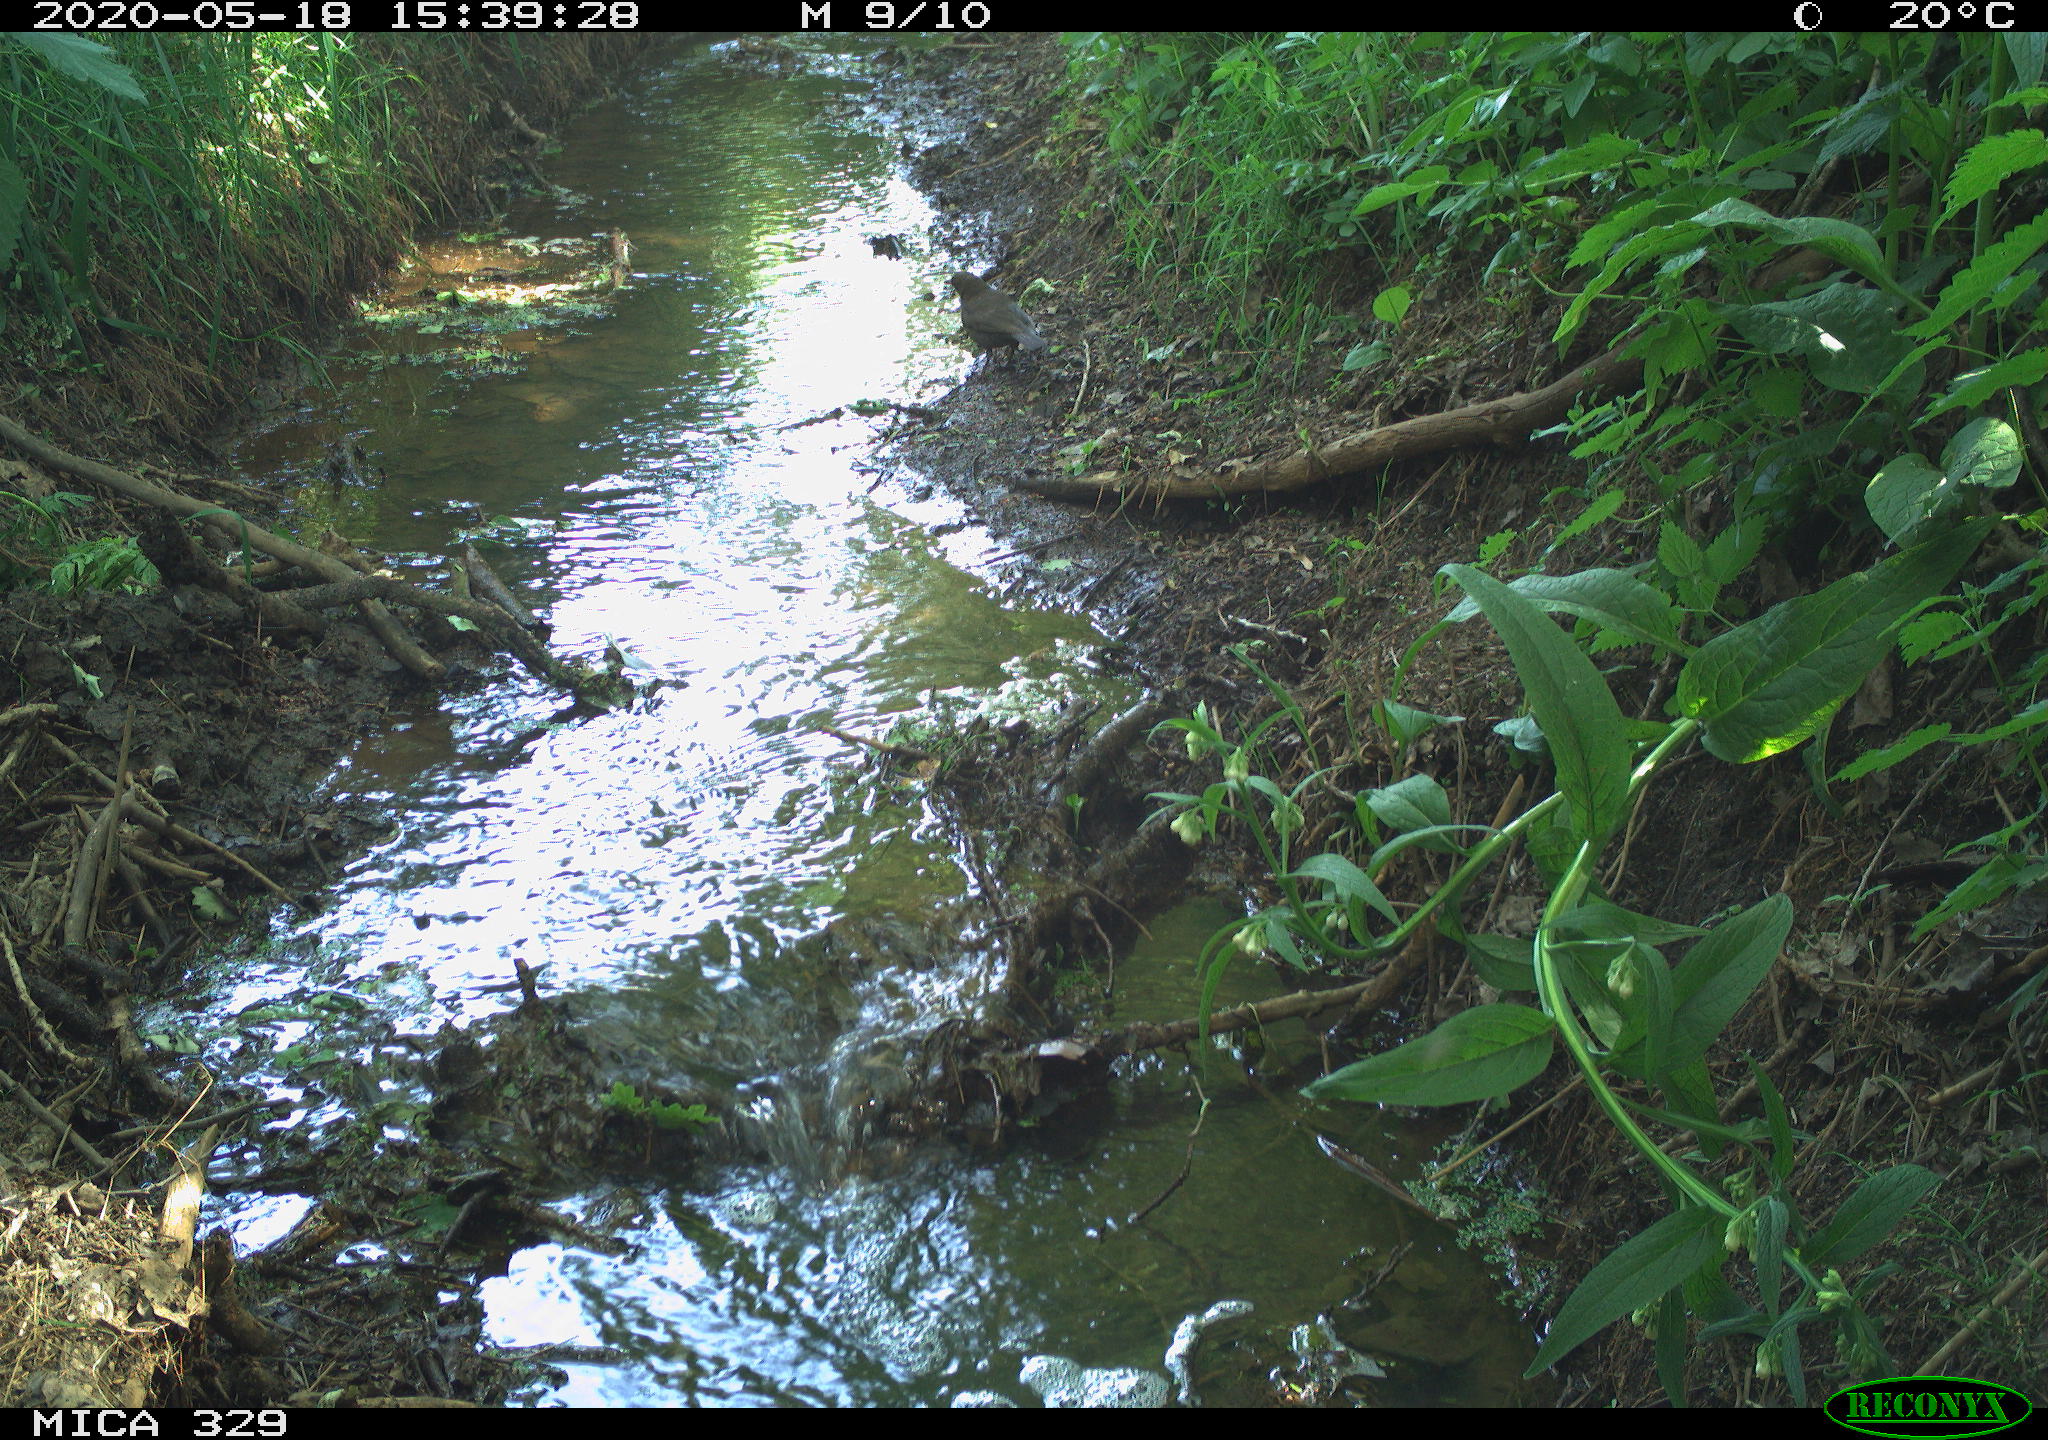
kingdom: Animalia
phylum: Chordata
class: Aves
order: Passeriformes
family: Turdidae
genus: Turdus
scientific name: Turdus merula
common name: Common blackbird
